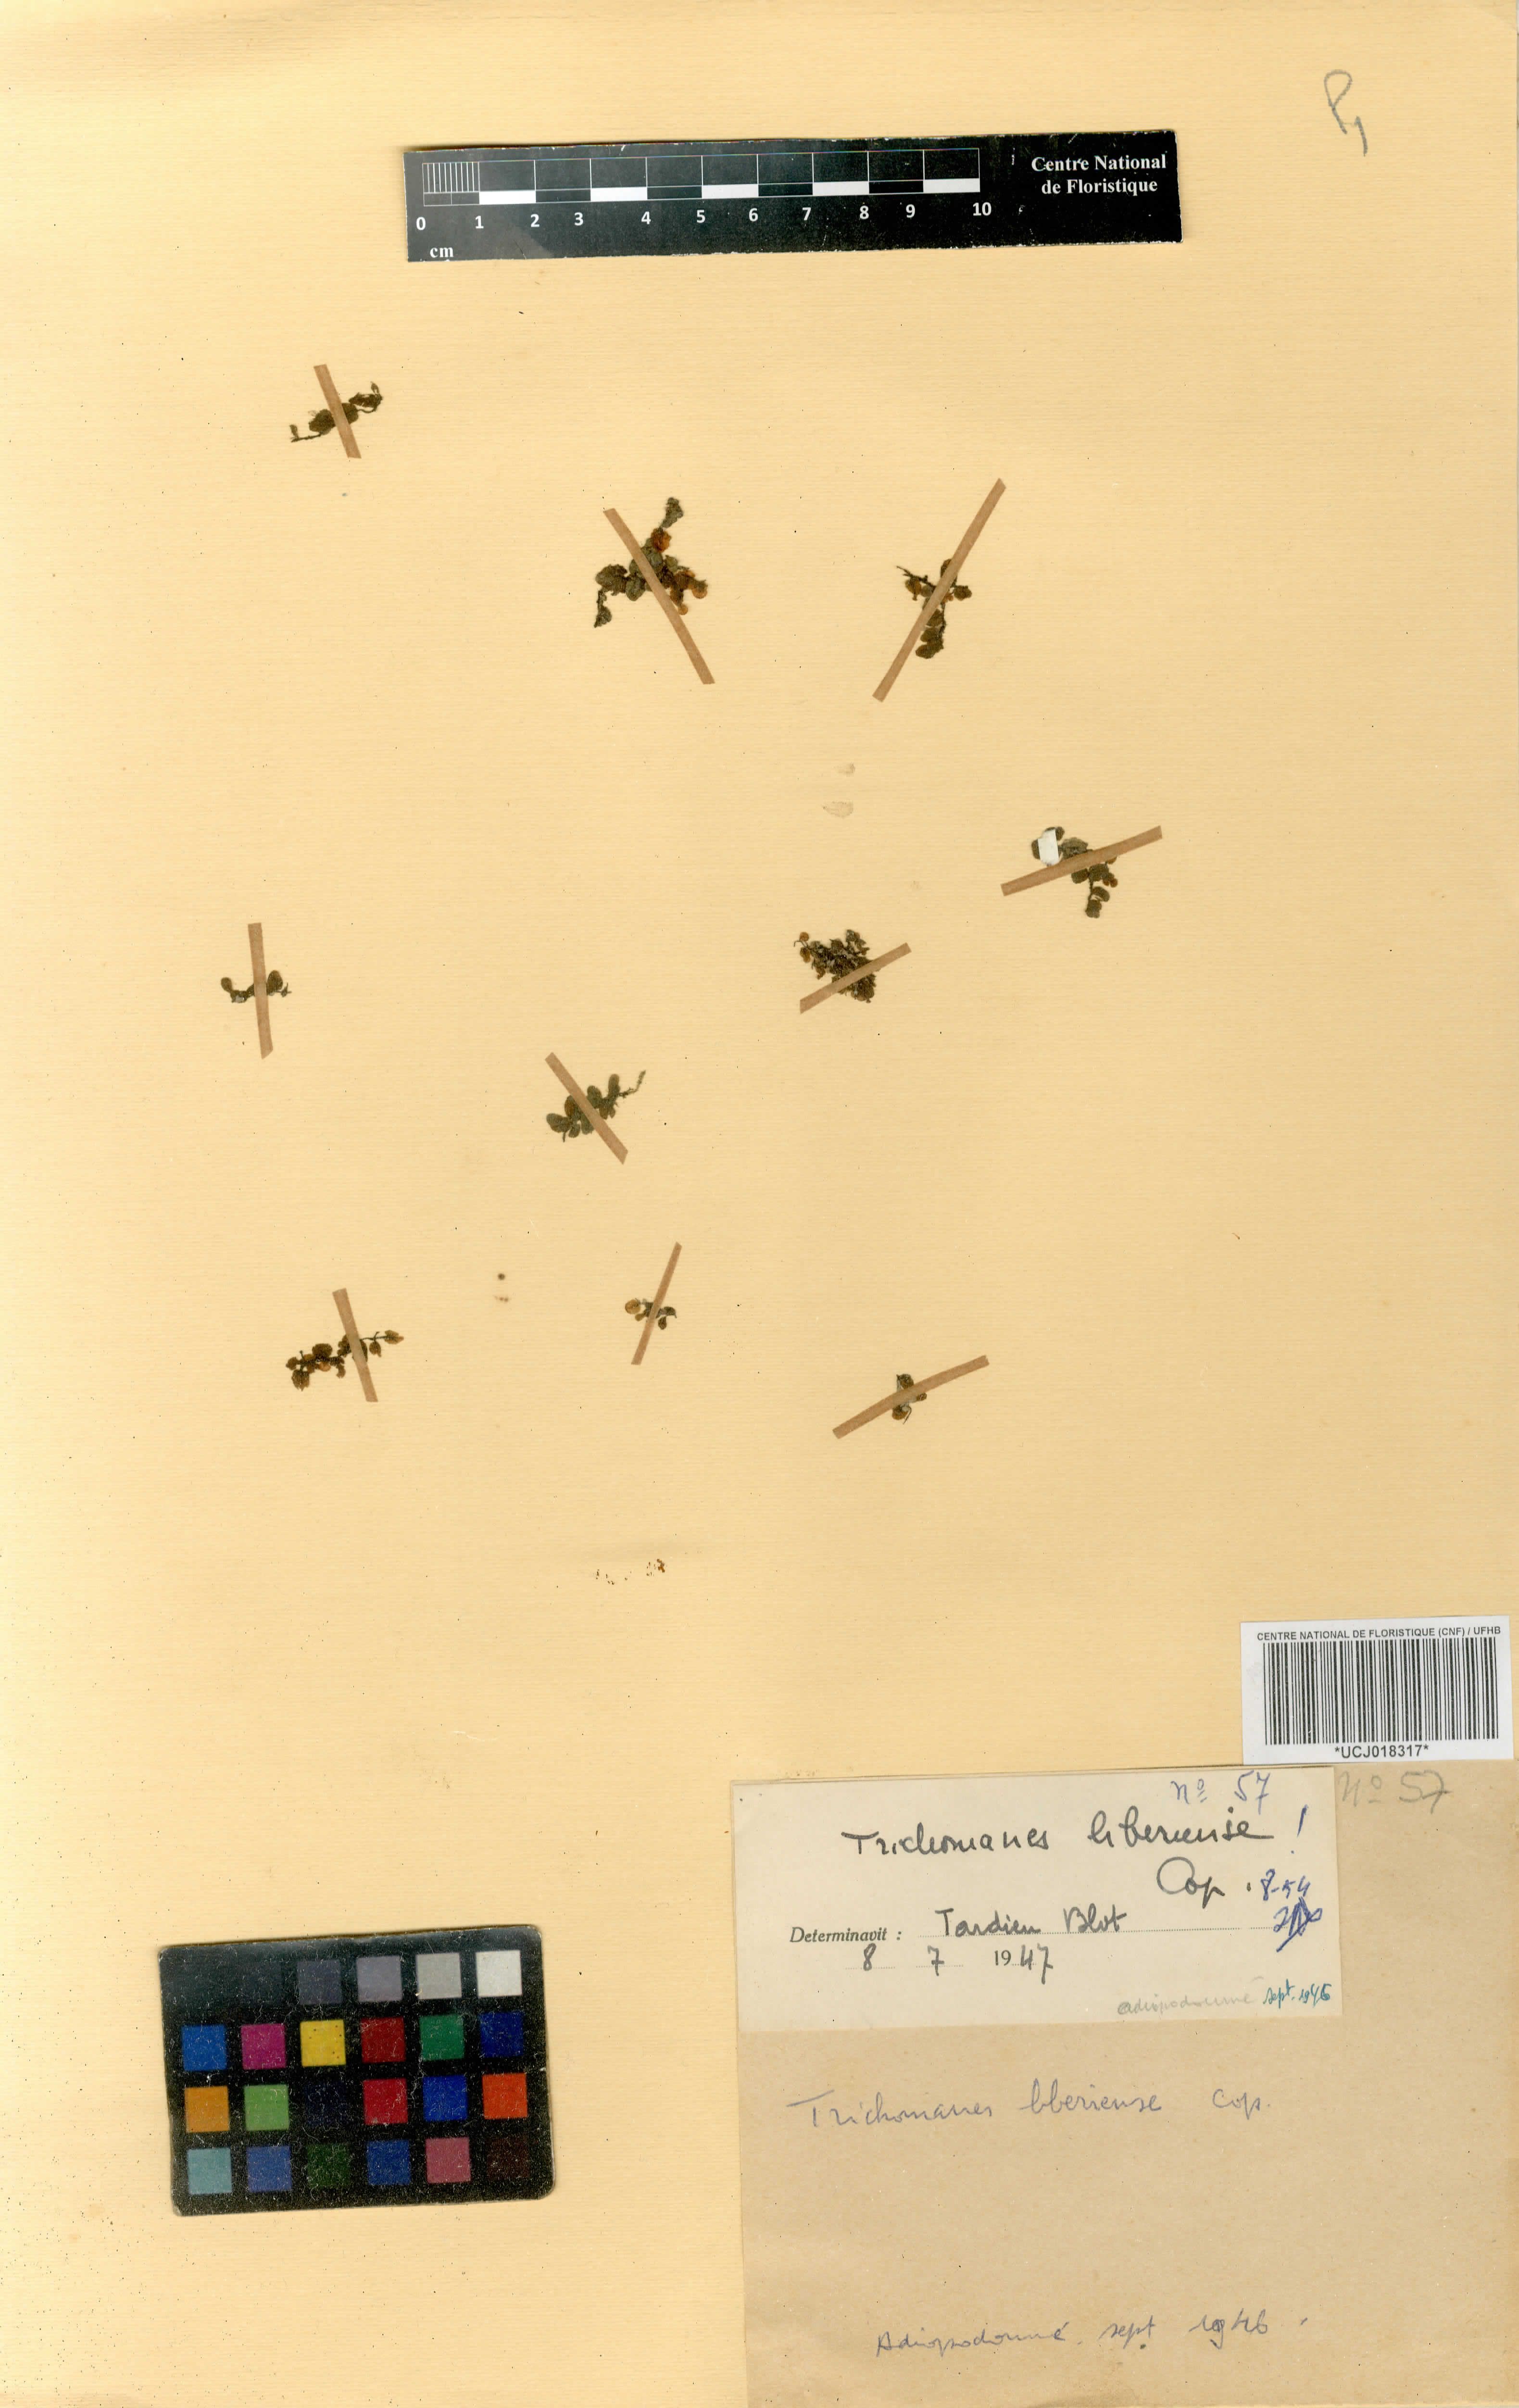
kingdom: Plantae
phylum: Tracheophyta
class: Polypodiopsida
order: Hymenophyllales
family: Hymenophyllaceae
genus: Trichomanes
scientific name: Trichomanes
